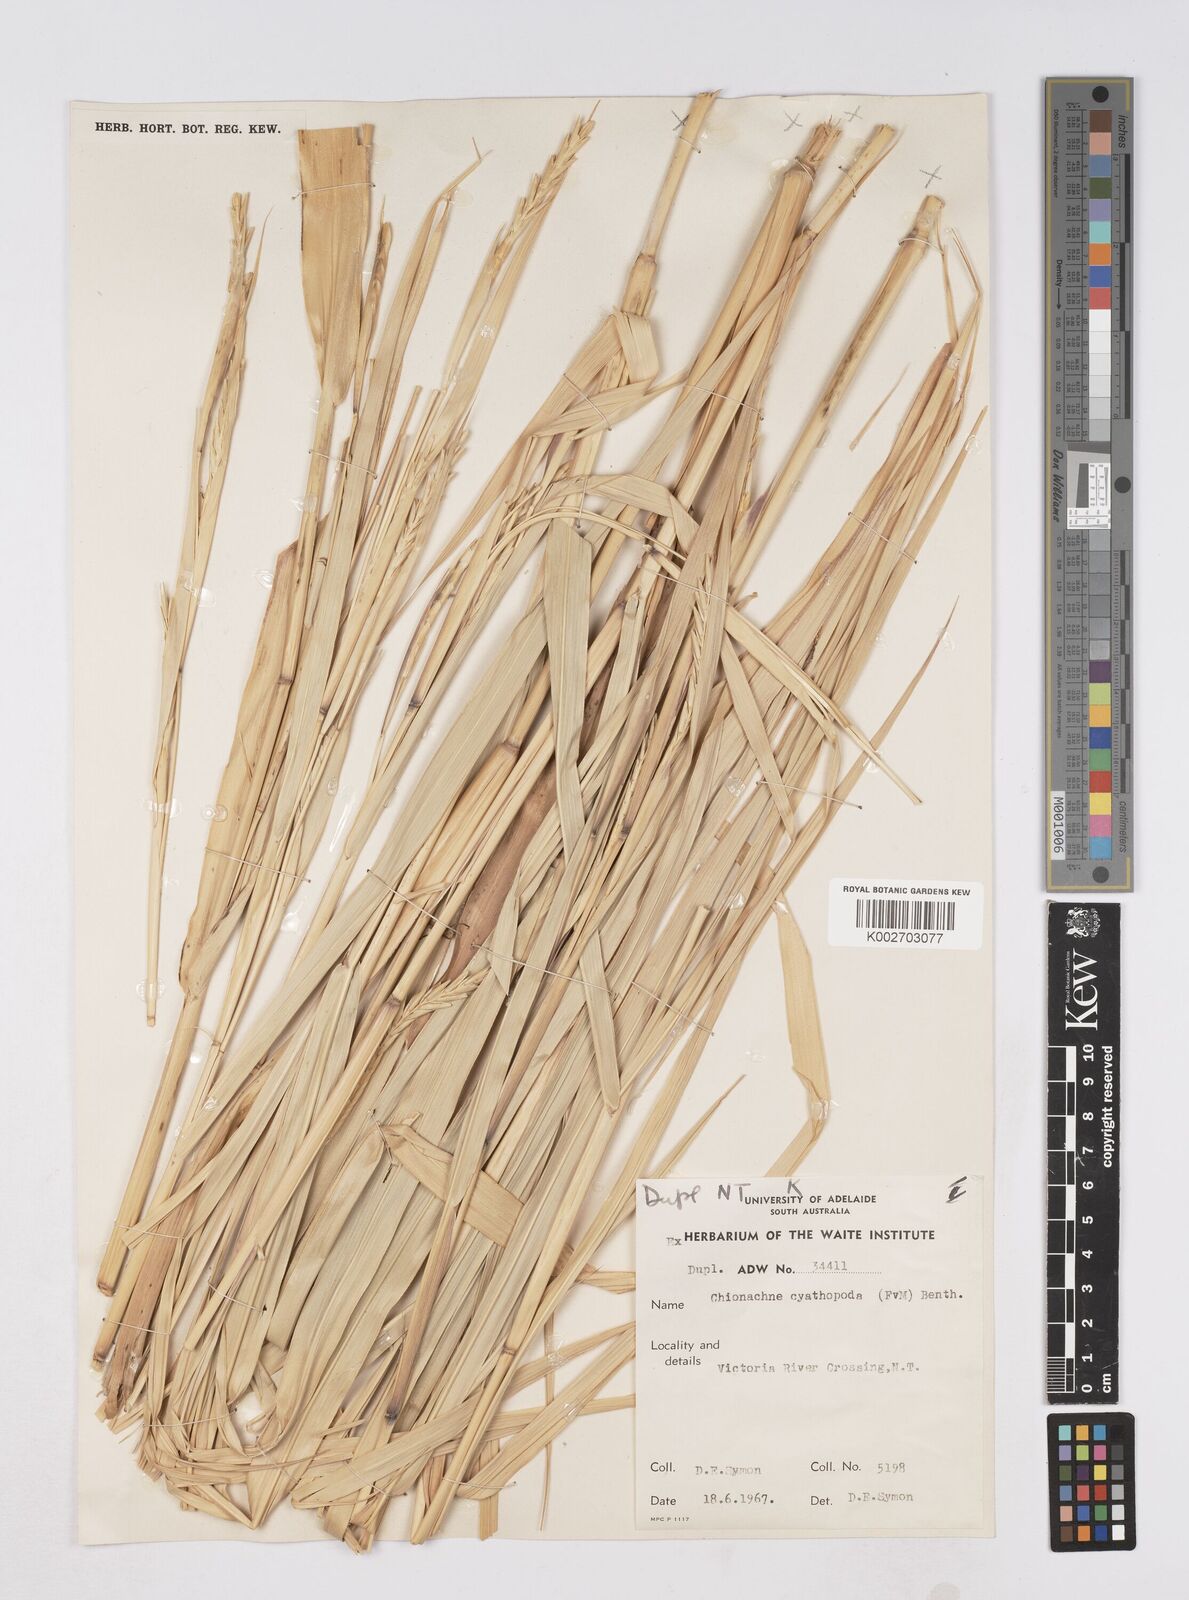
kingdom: Plantae
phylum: Tracheophyta
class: Liliopsida
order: Poales
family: Poaceae
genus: Polytoca
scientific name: Polytoca cyathopoda
